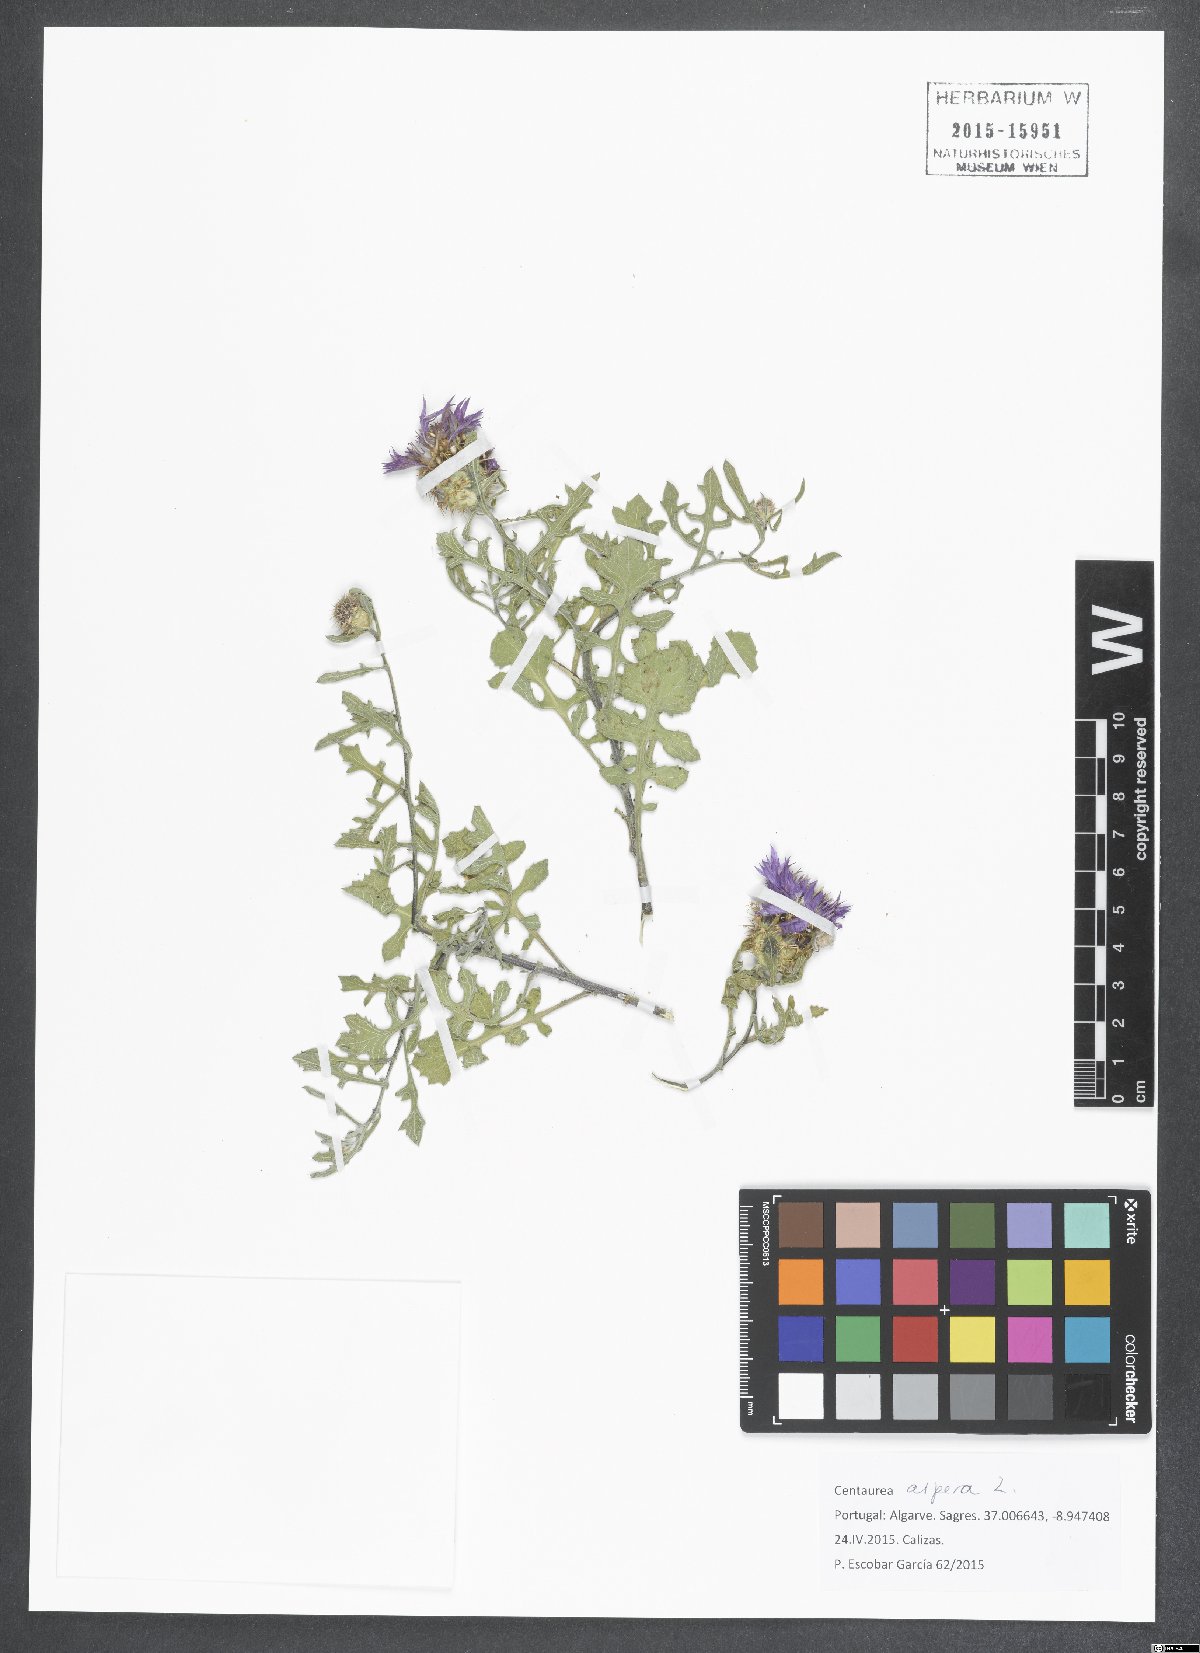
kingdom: Plantae
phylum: Tracheophyta
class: Magnoliopsida
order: Asterales
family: Asteraceae
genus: Centaurea
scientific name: Centaurea aspera
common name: Rough star-thistle
